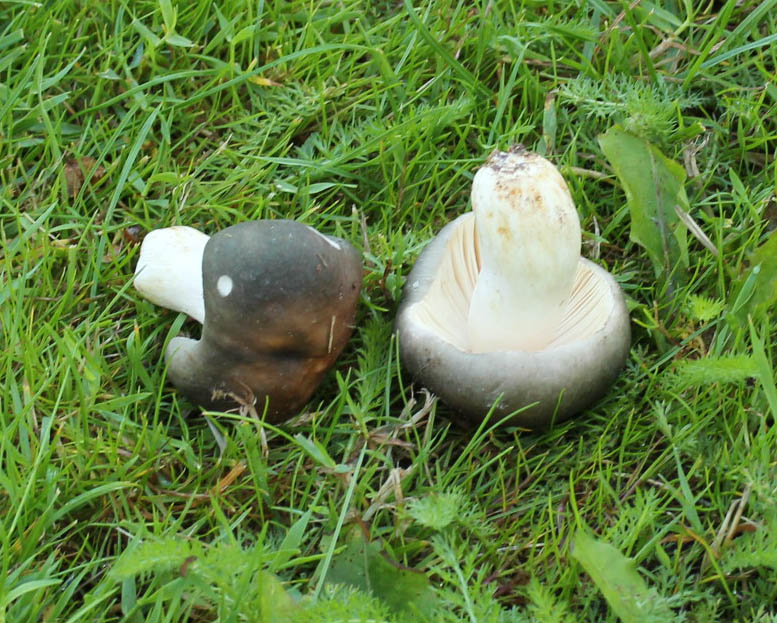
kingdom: Fungi
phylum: Basidiomycota
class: Agaricomycetes
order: Russulales
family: Russulaceae
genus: Russula
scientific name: Russula cyanoxantha
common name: broget skørhat
